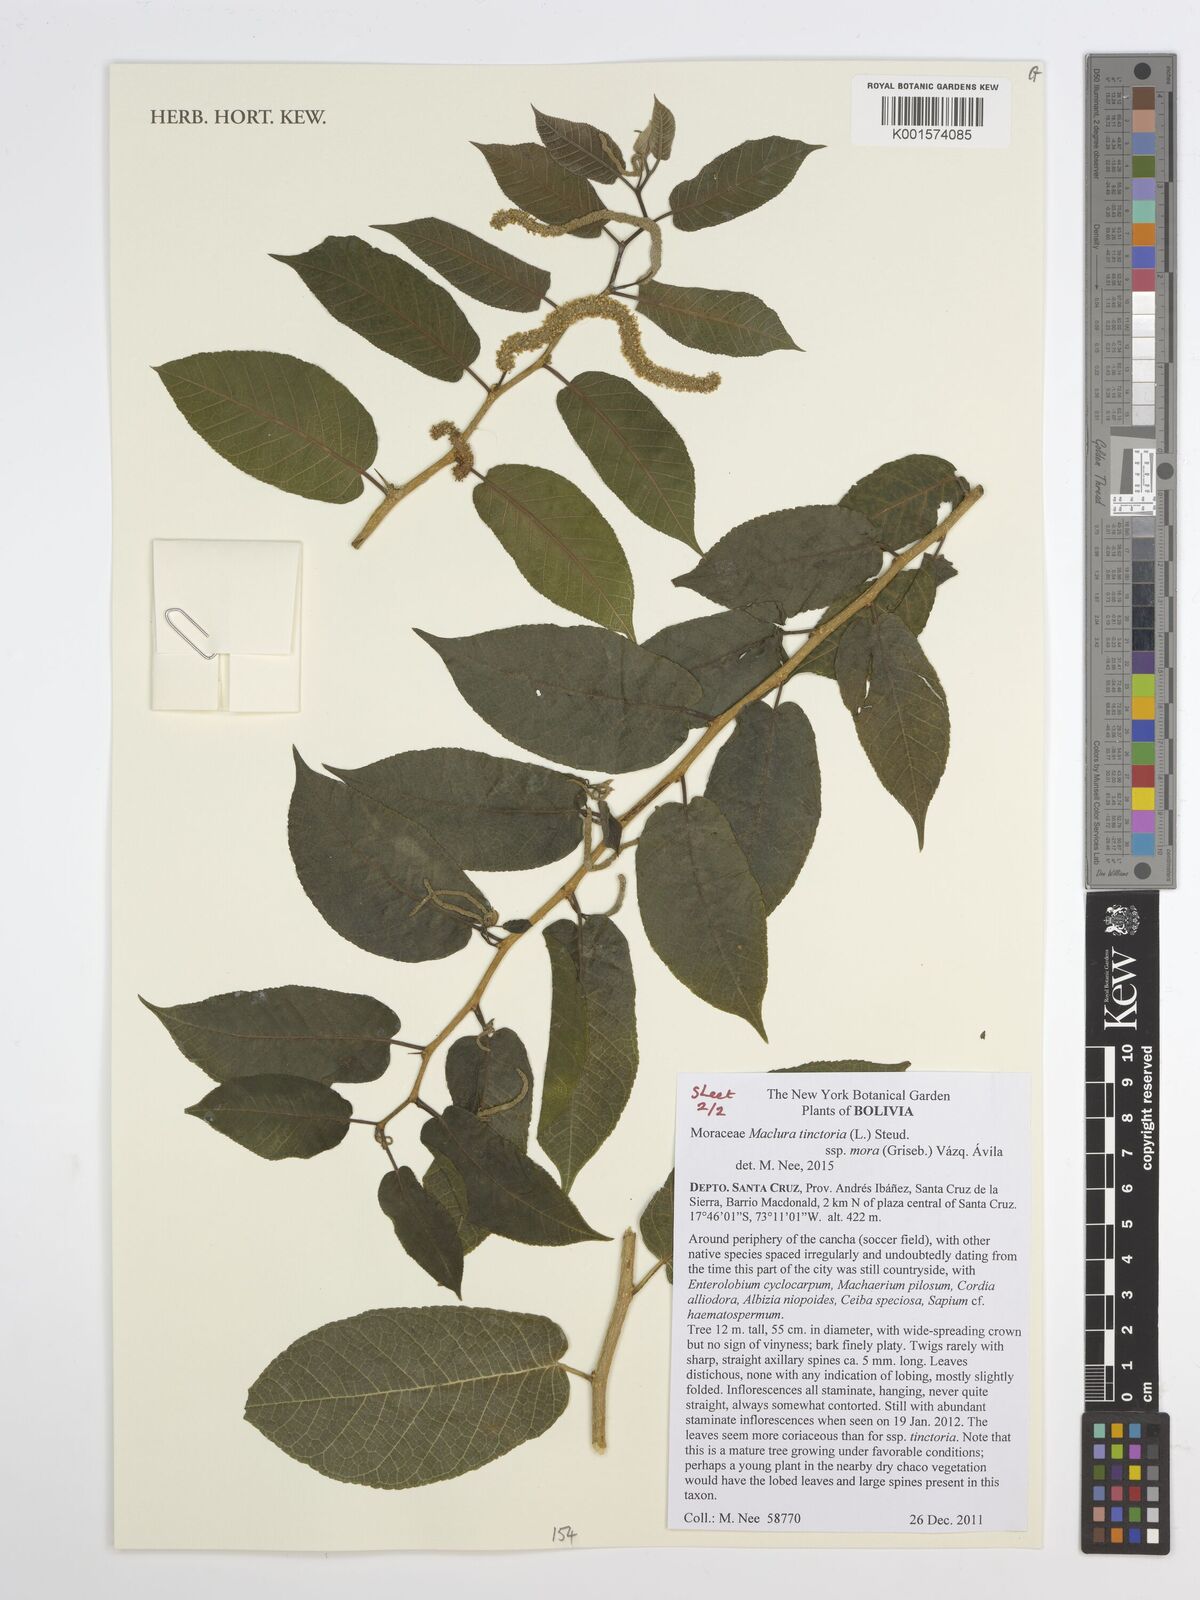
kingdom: Plantae
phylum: Tracheophyta
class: Magnoliopsida
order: Rosales
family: Moraceae
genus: Maclura
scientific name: Maclura tinctoria
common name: Old fustic
